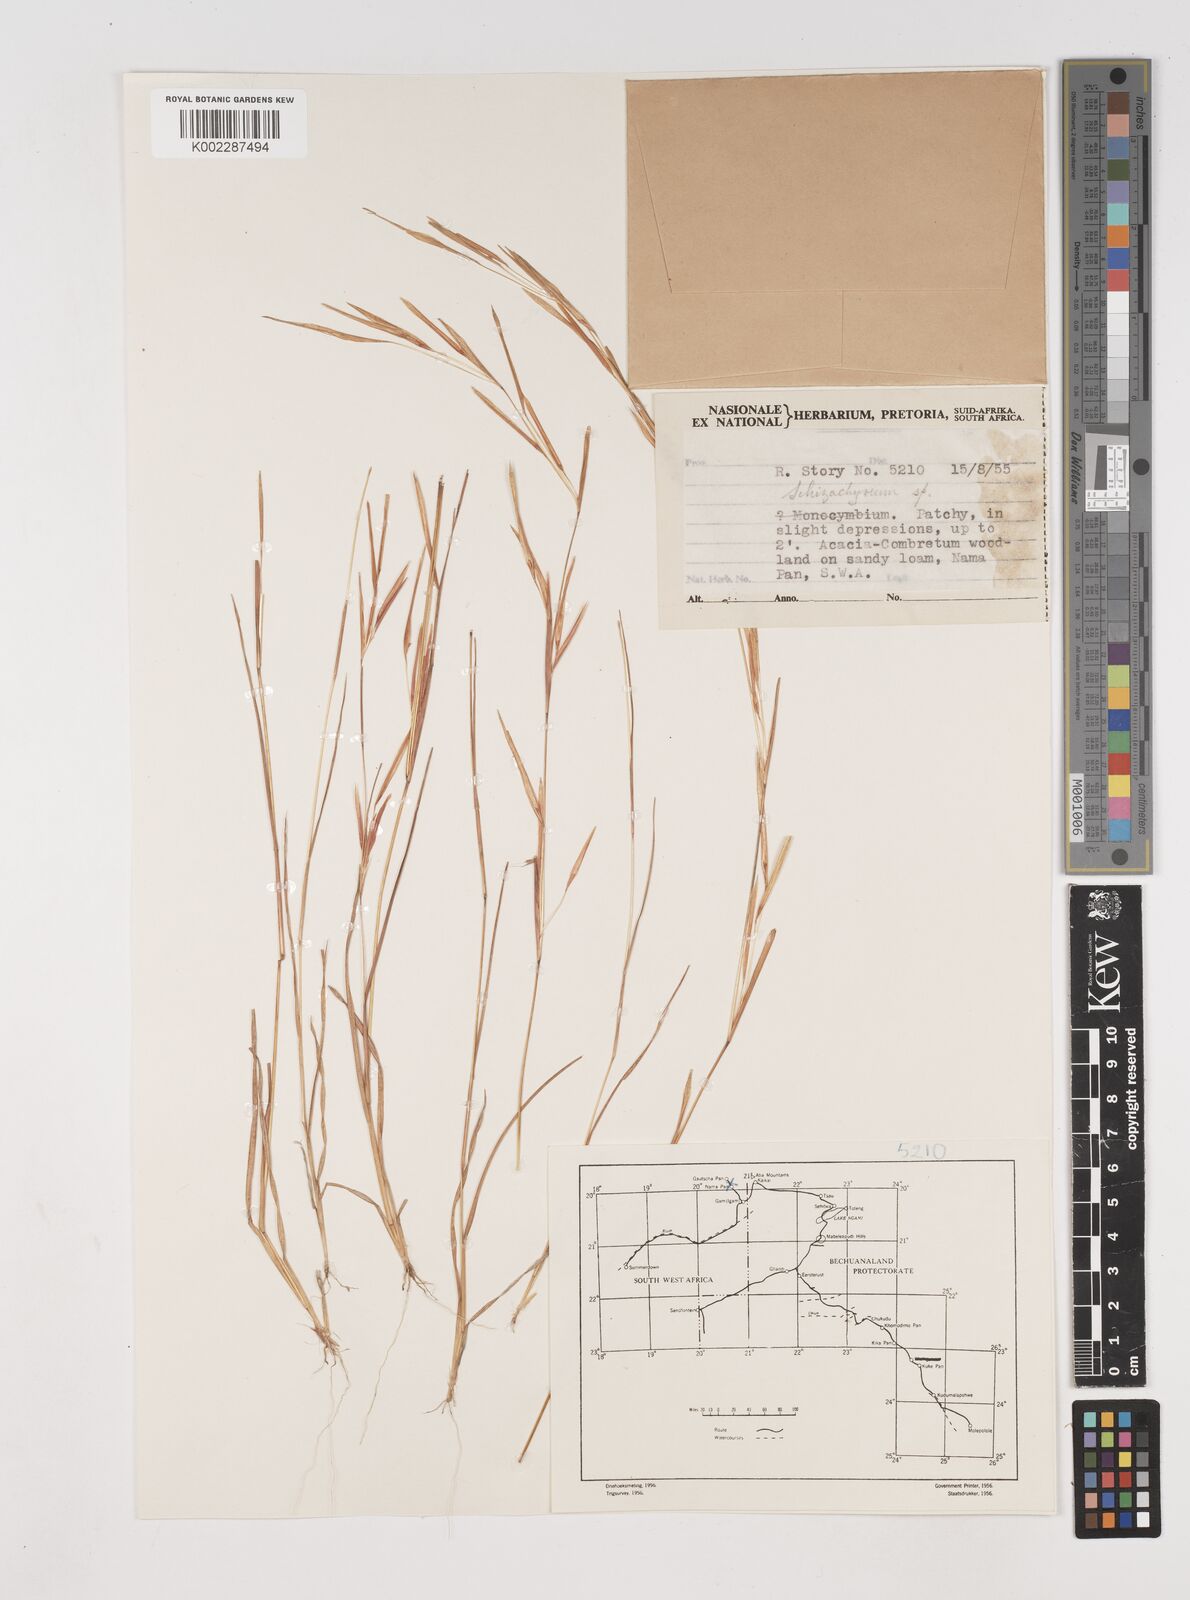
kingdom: Plantae
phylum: Tracheophyta
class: Liliopsida
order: Poales
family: Poaceae
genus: Schizachyrium
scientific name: Schizachyrium exile
